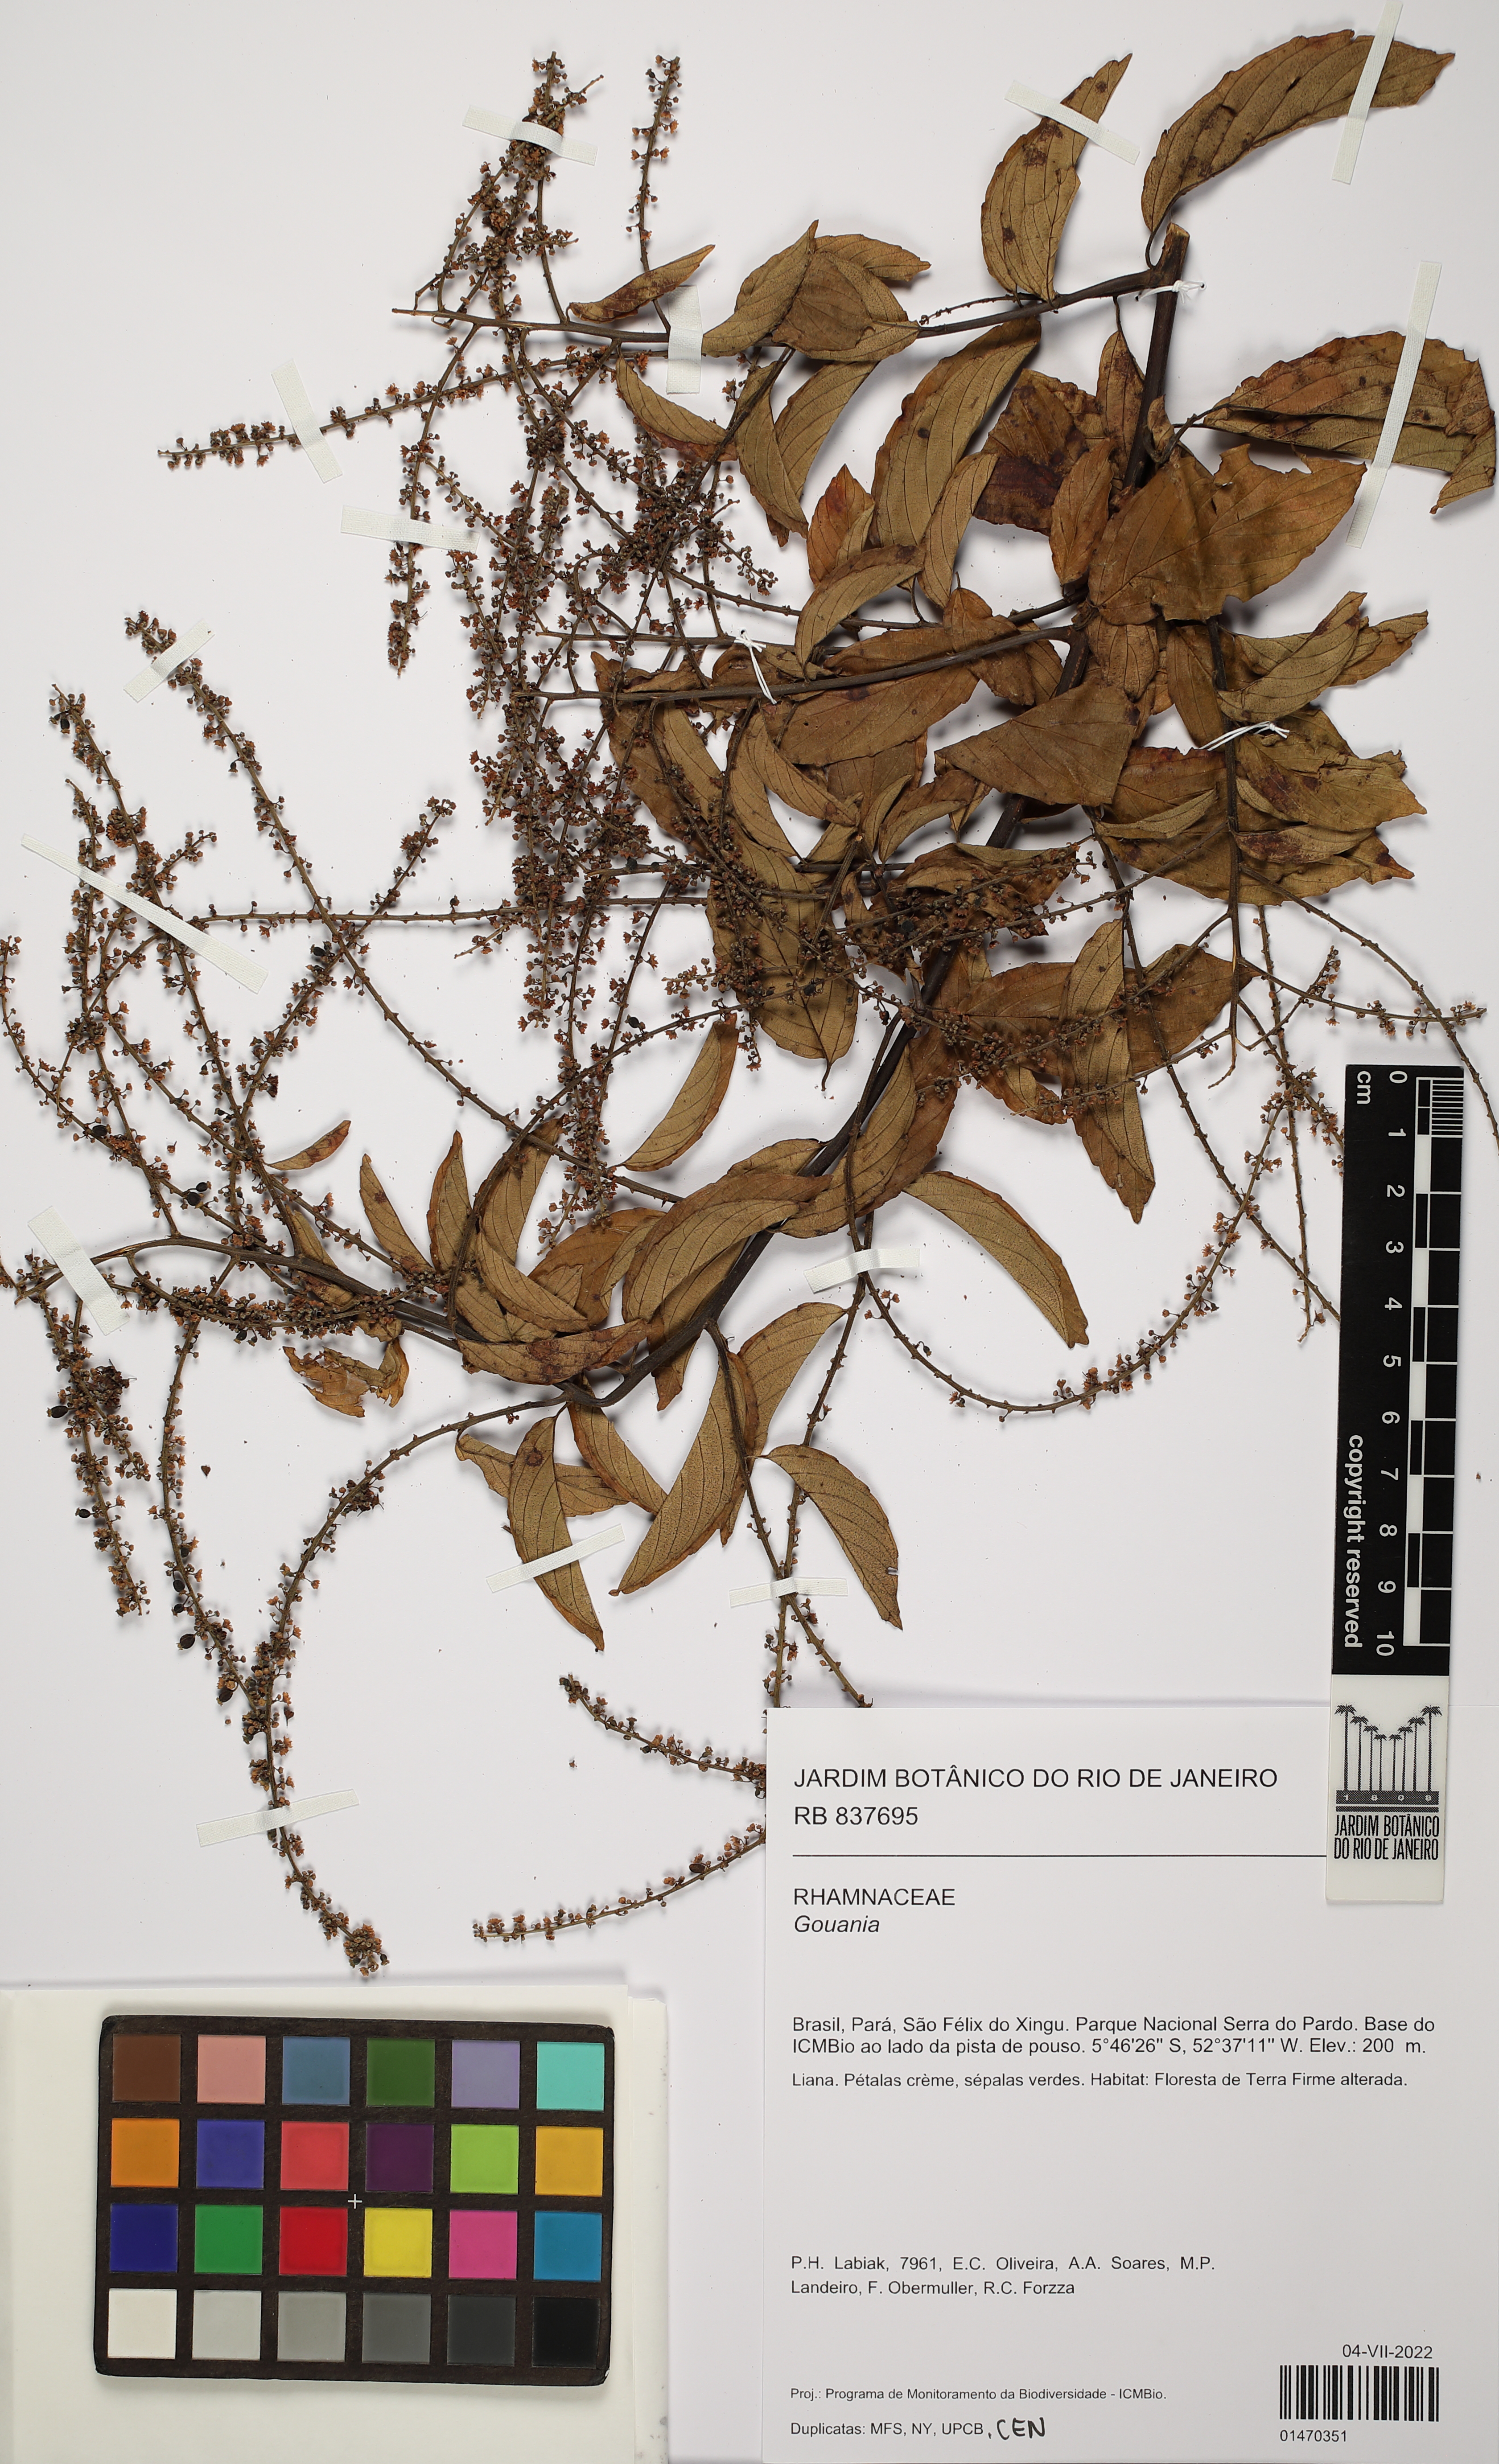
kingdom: Plantae
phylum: Tracheophyta
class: Magnoliopsida
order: Rosales
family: Rhamnaceae
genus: Gouania
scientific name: Gouania
